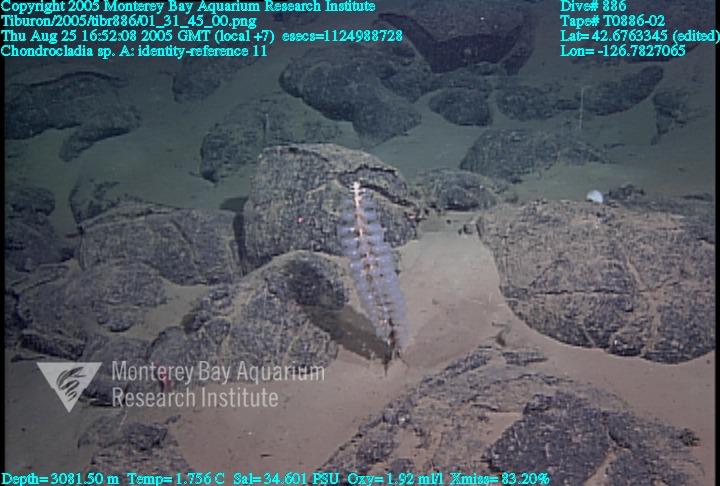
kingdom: Animalia
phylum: Porifera
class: Demospongiae
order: Poecilosclerida
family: Cladorhizidae
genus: Chondrocladia
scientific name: Chondrocladia
